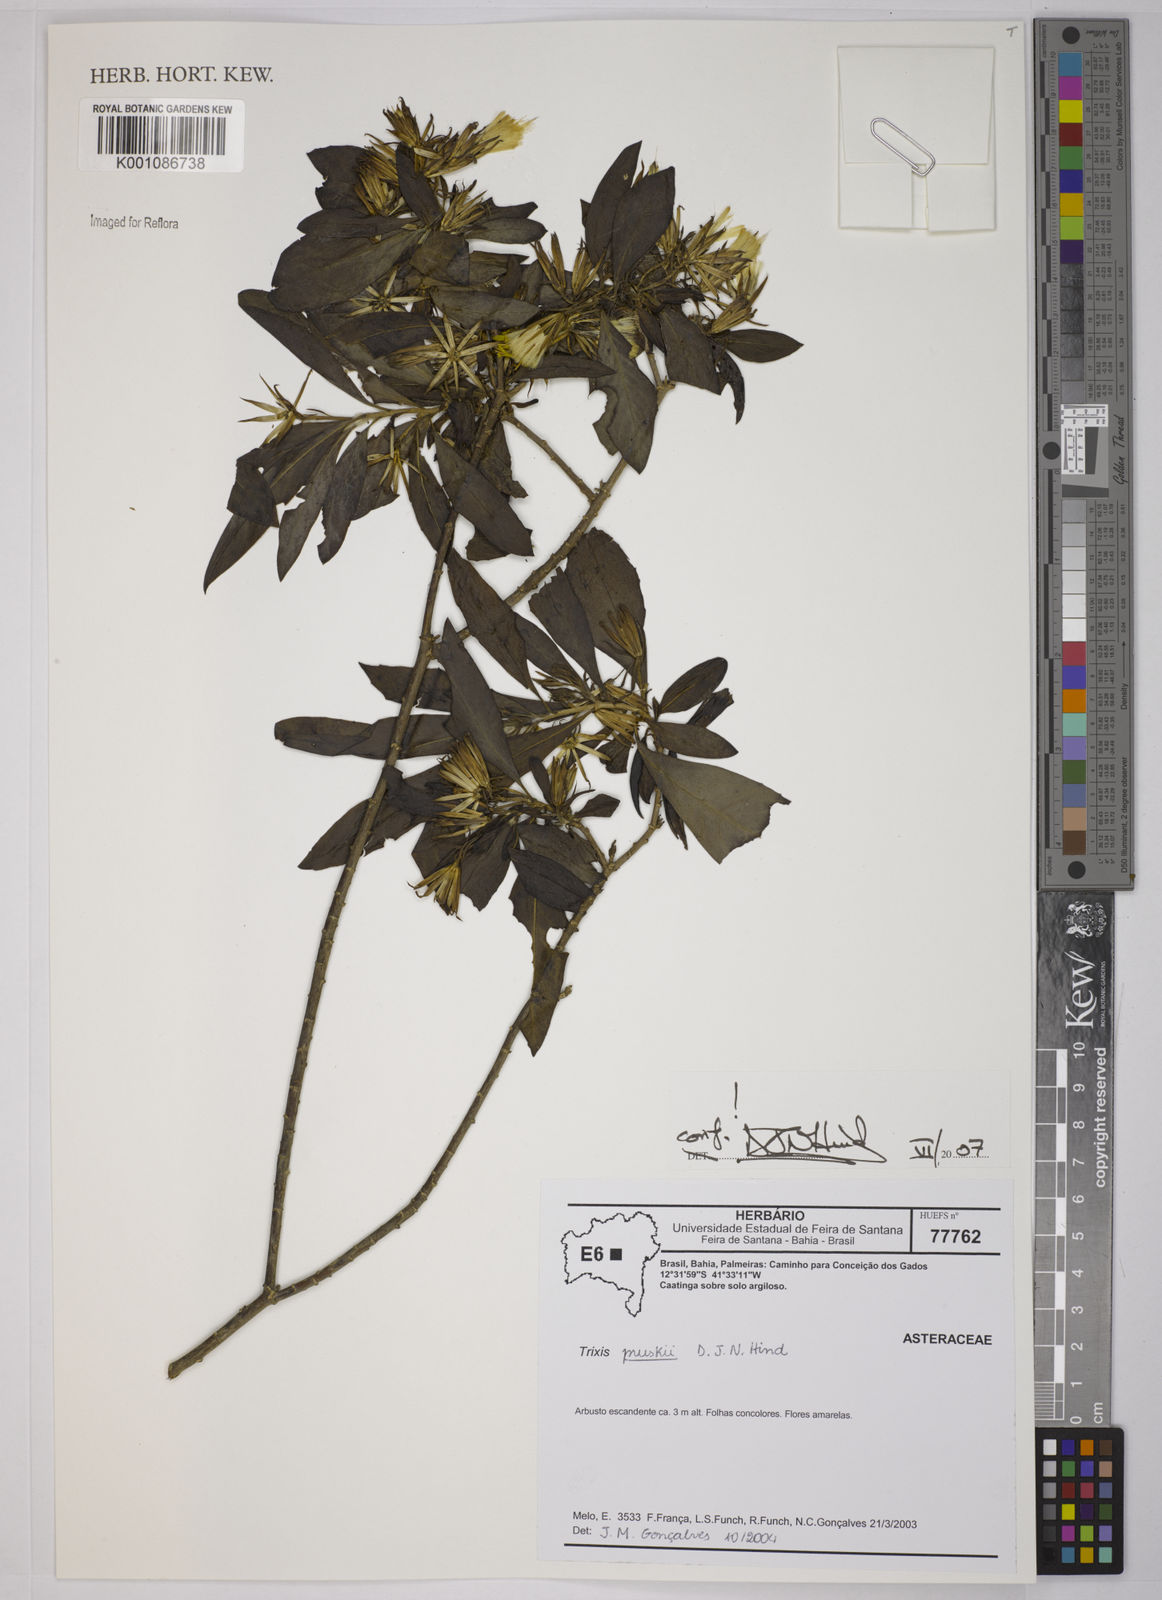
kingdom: Plantae
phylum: Tracheophyta
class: Magnoliopsida
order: Asterales
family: Asteraceae
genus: Trixis
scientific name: Trixis pruskii
